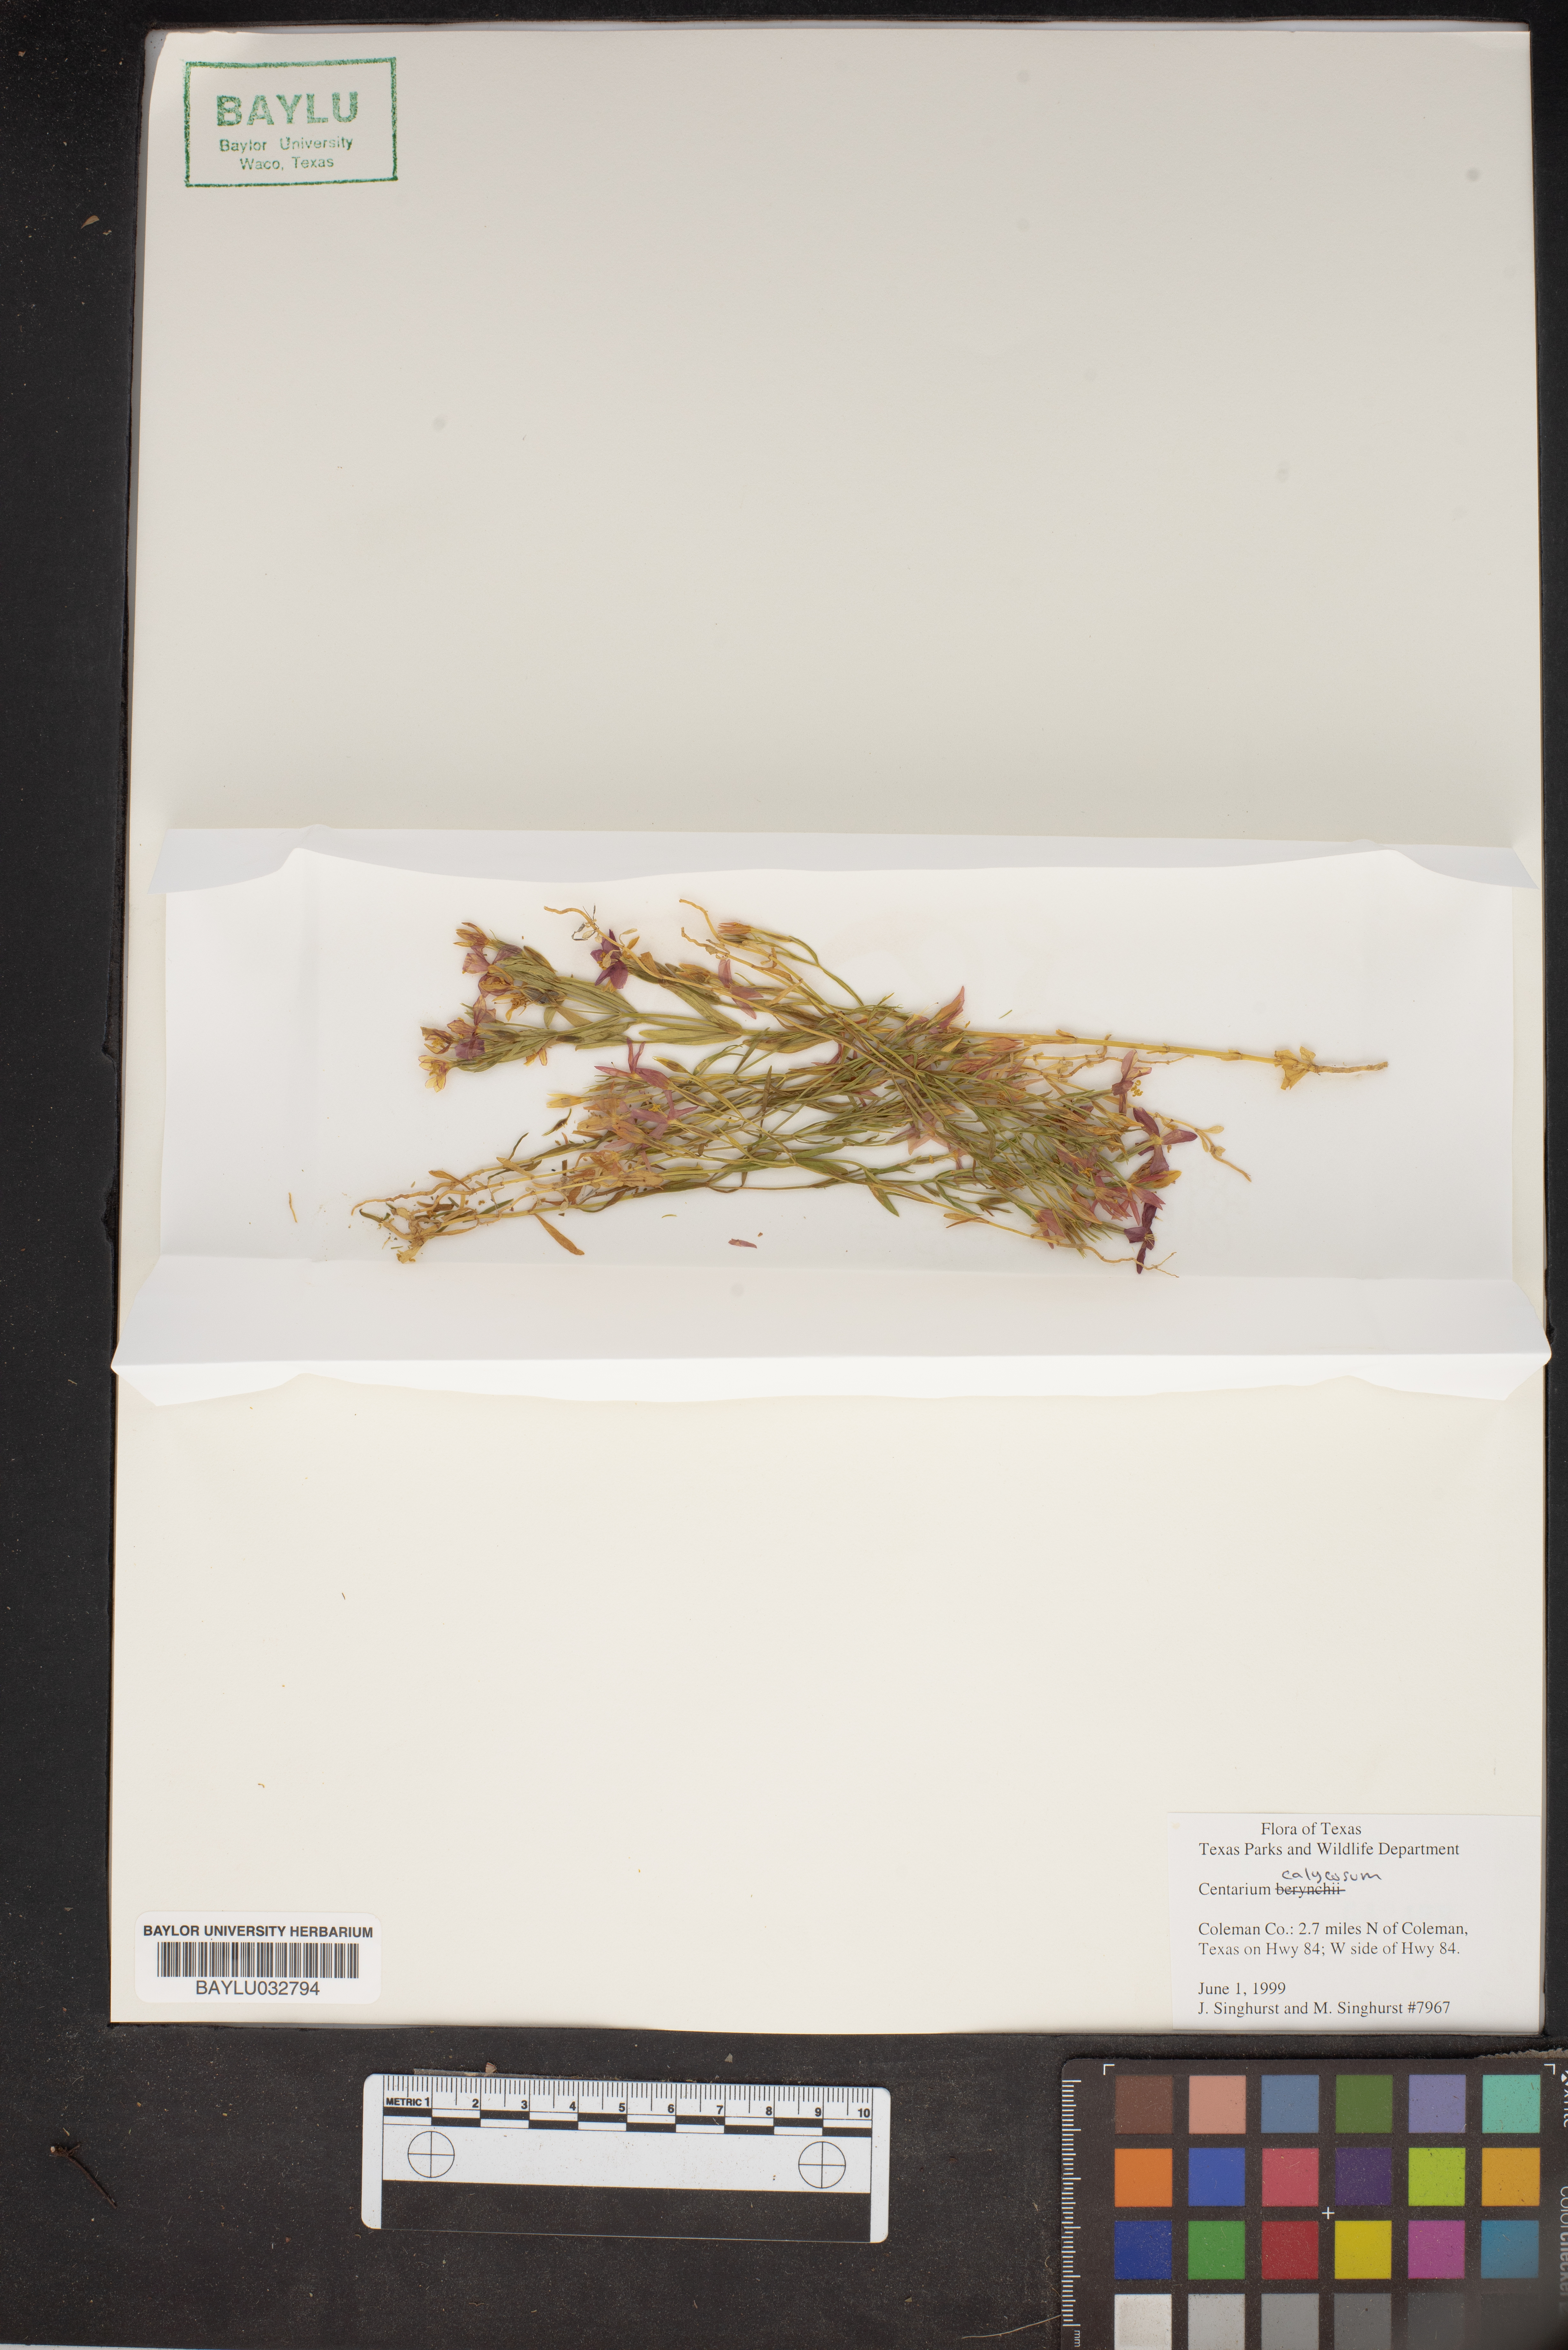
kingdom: Plantae
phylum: Tracheophyta
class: Magnoliopsida
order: Gentianales
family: Gentianaceae
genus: Zeltnera
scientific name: Zeltnera calycosa
